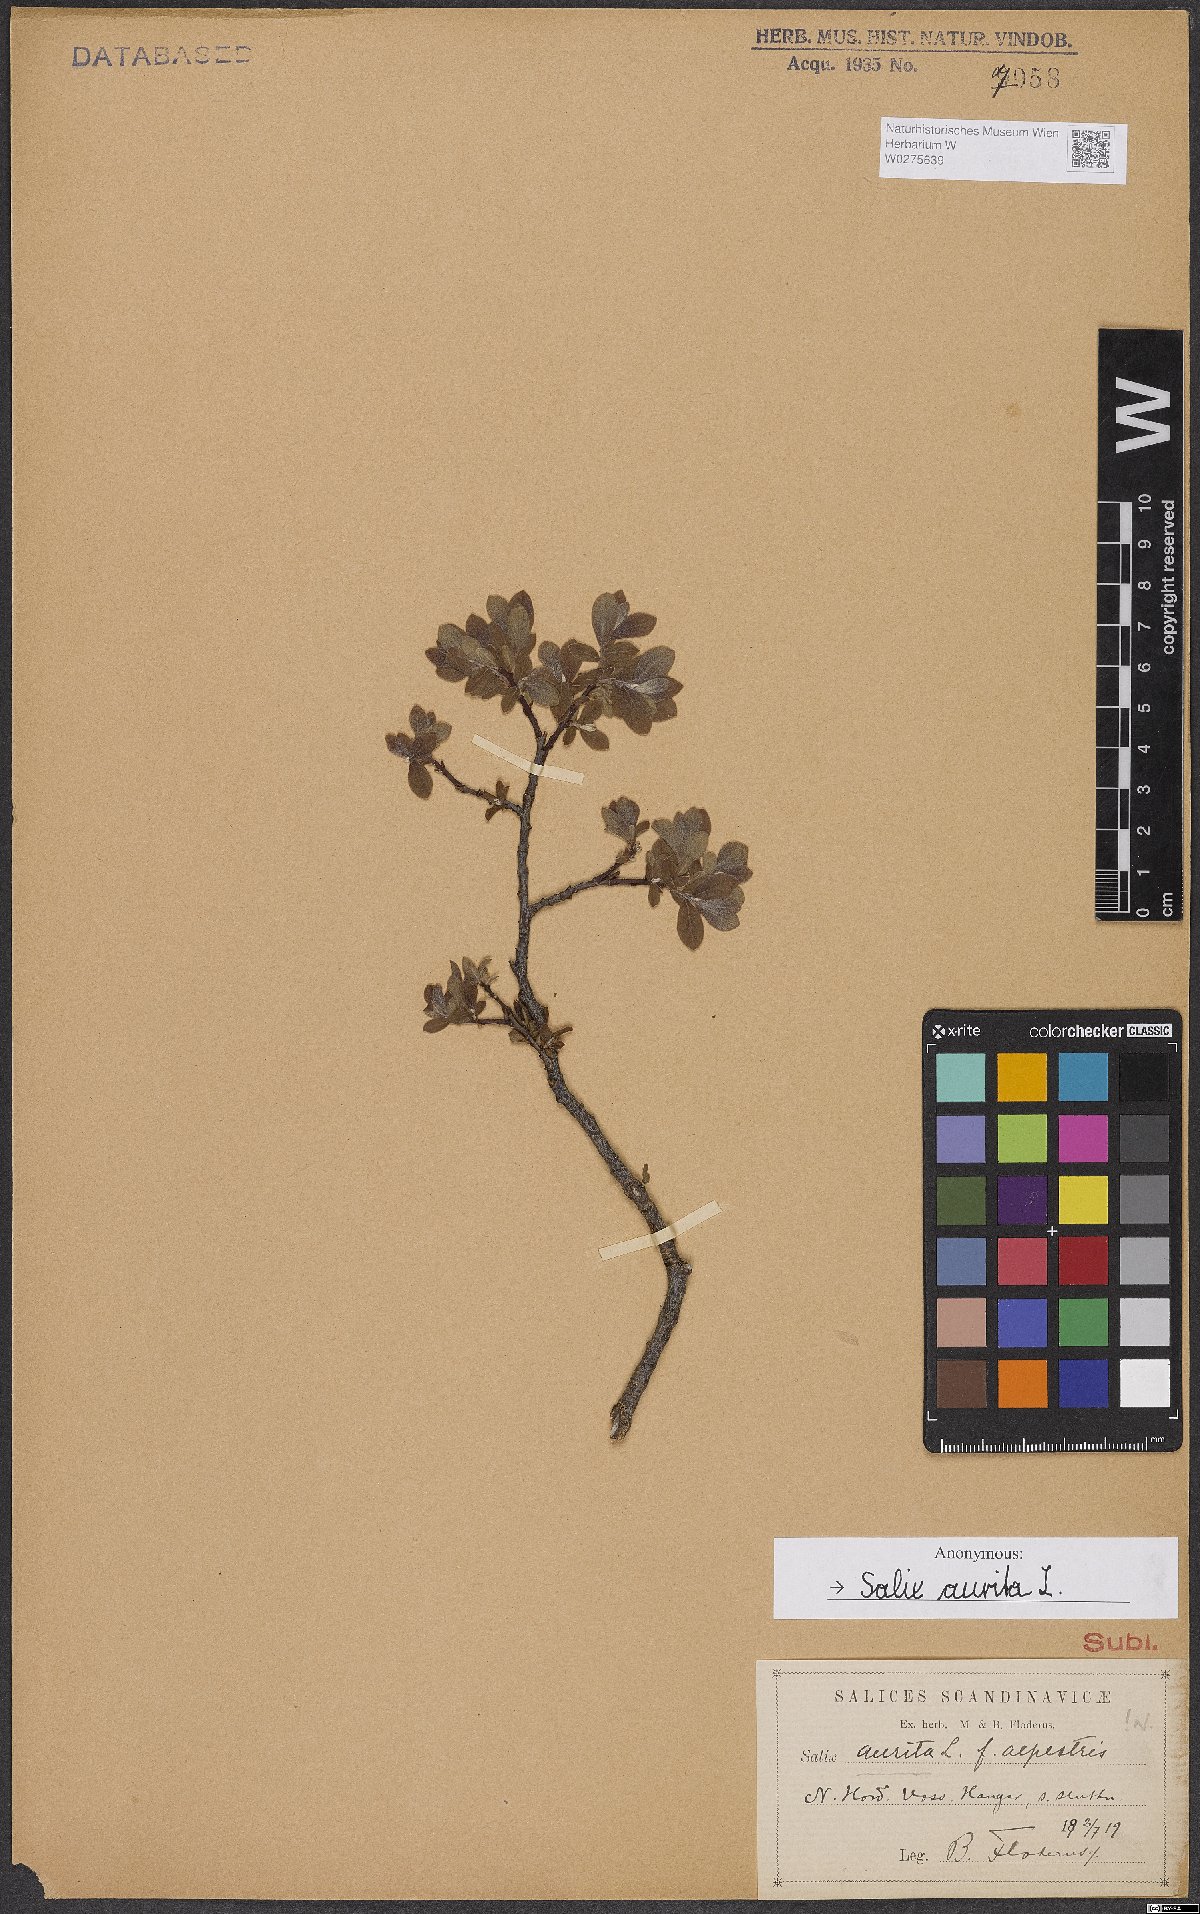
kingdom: Plantae
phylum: Tracheophyta
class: Magnoliopsida
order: Malpighiales
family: Salicaceae
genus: Salix
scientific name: Salix aurita
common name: Eared willow
